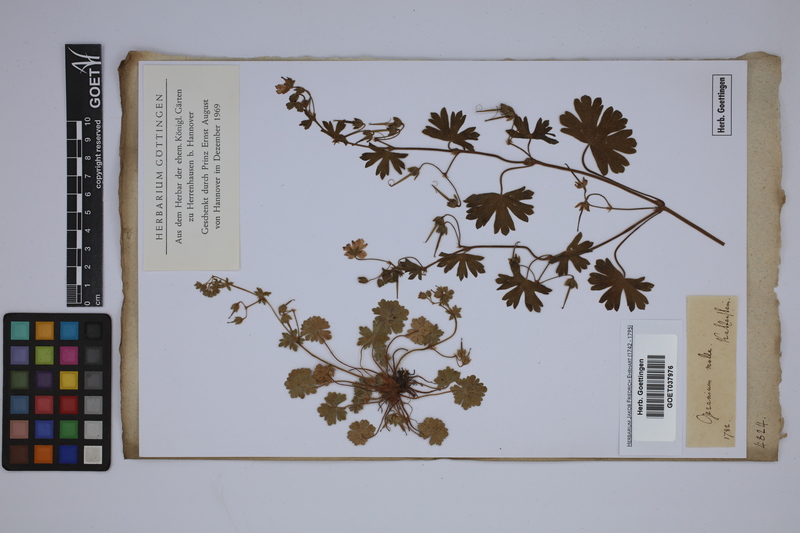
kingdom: Plantae
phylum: Tracheophyta
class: Magnoliopsida
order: Geraniales
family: Geraniaceae
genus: Geranium
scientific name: Geranium molle
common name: Dove's-foot crane's-bill
